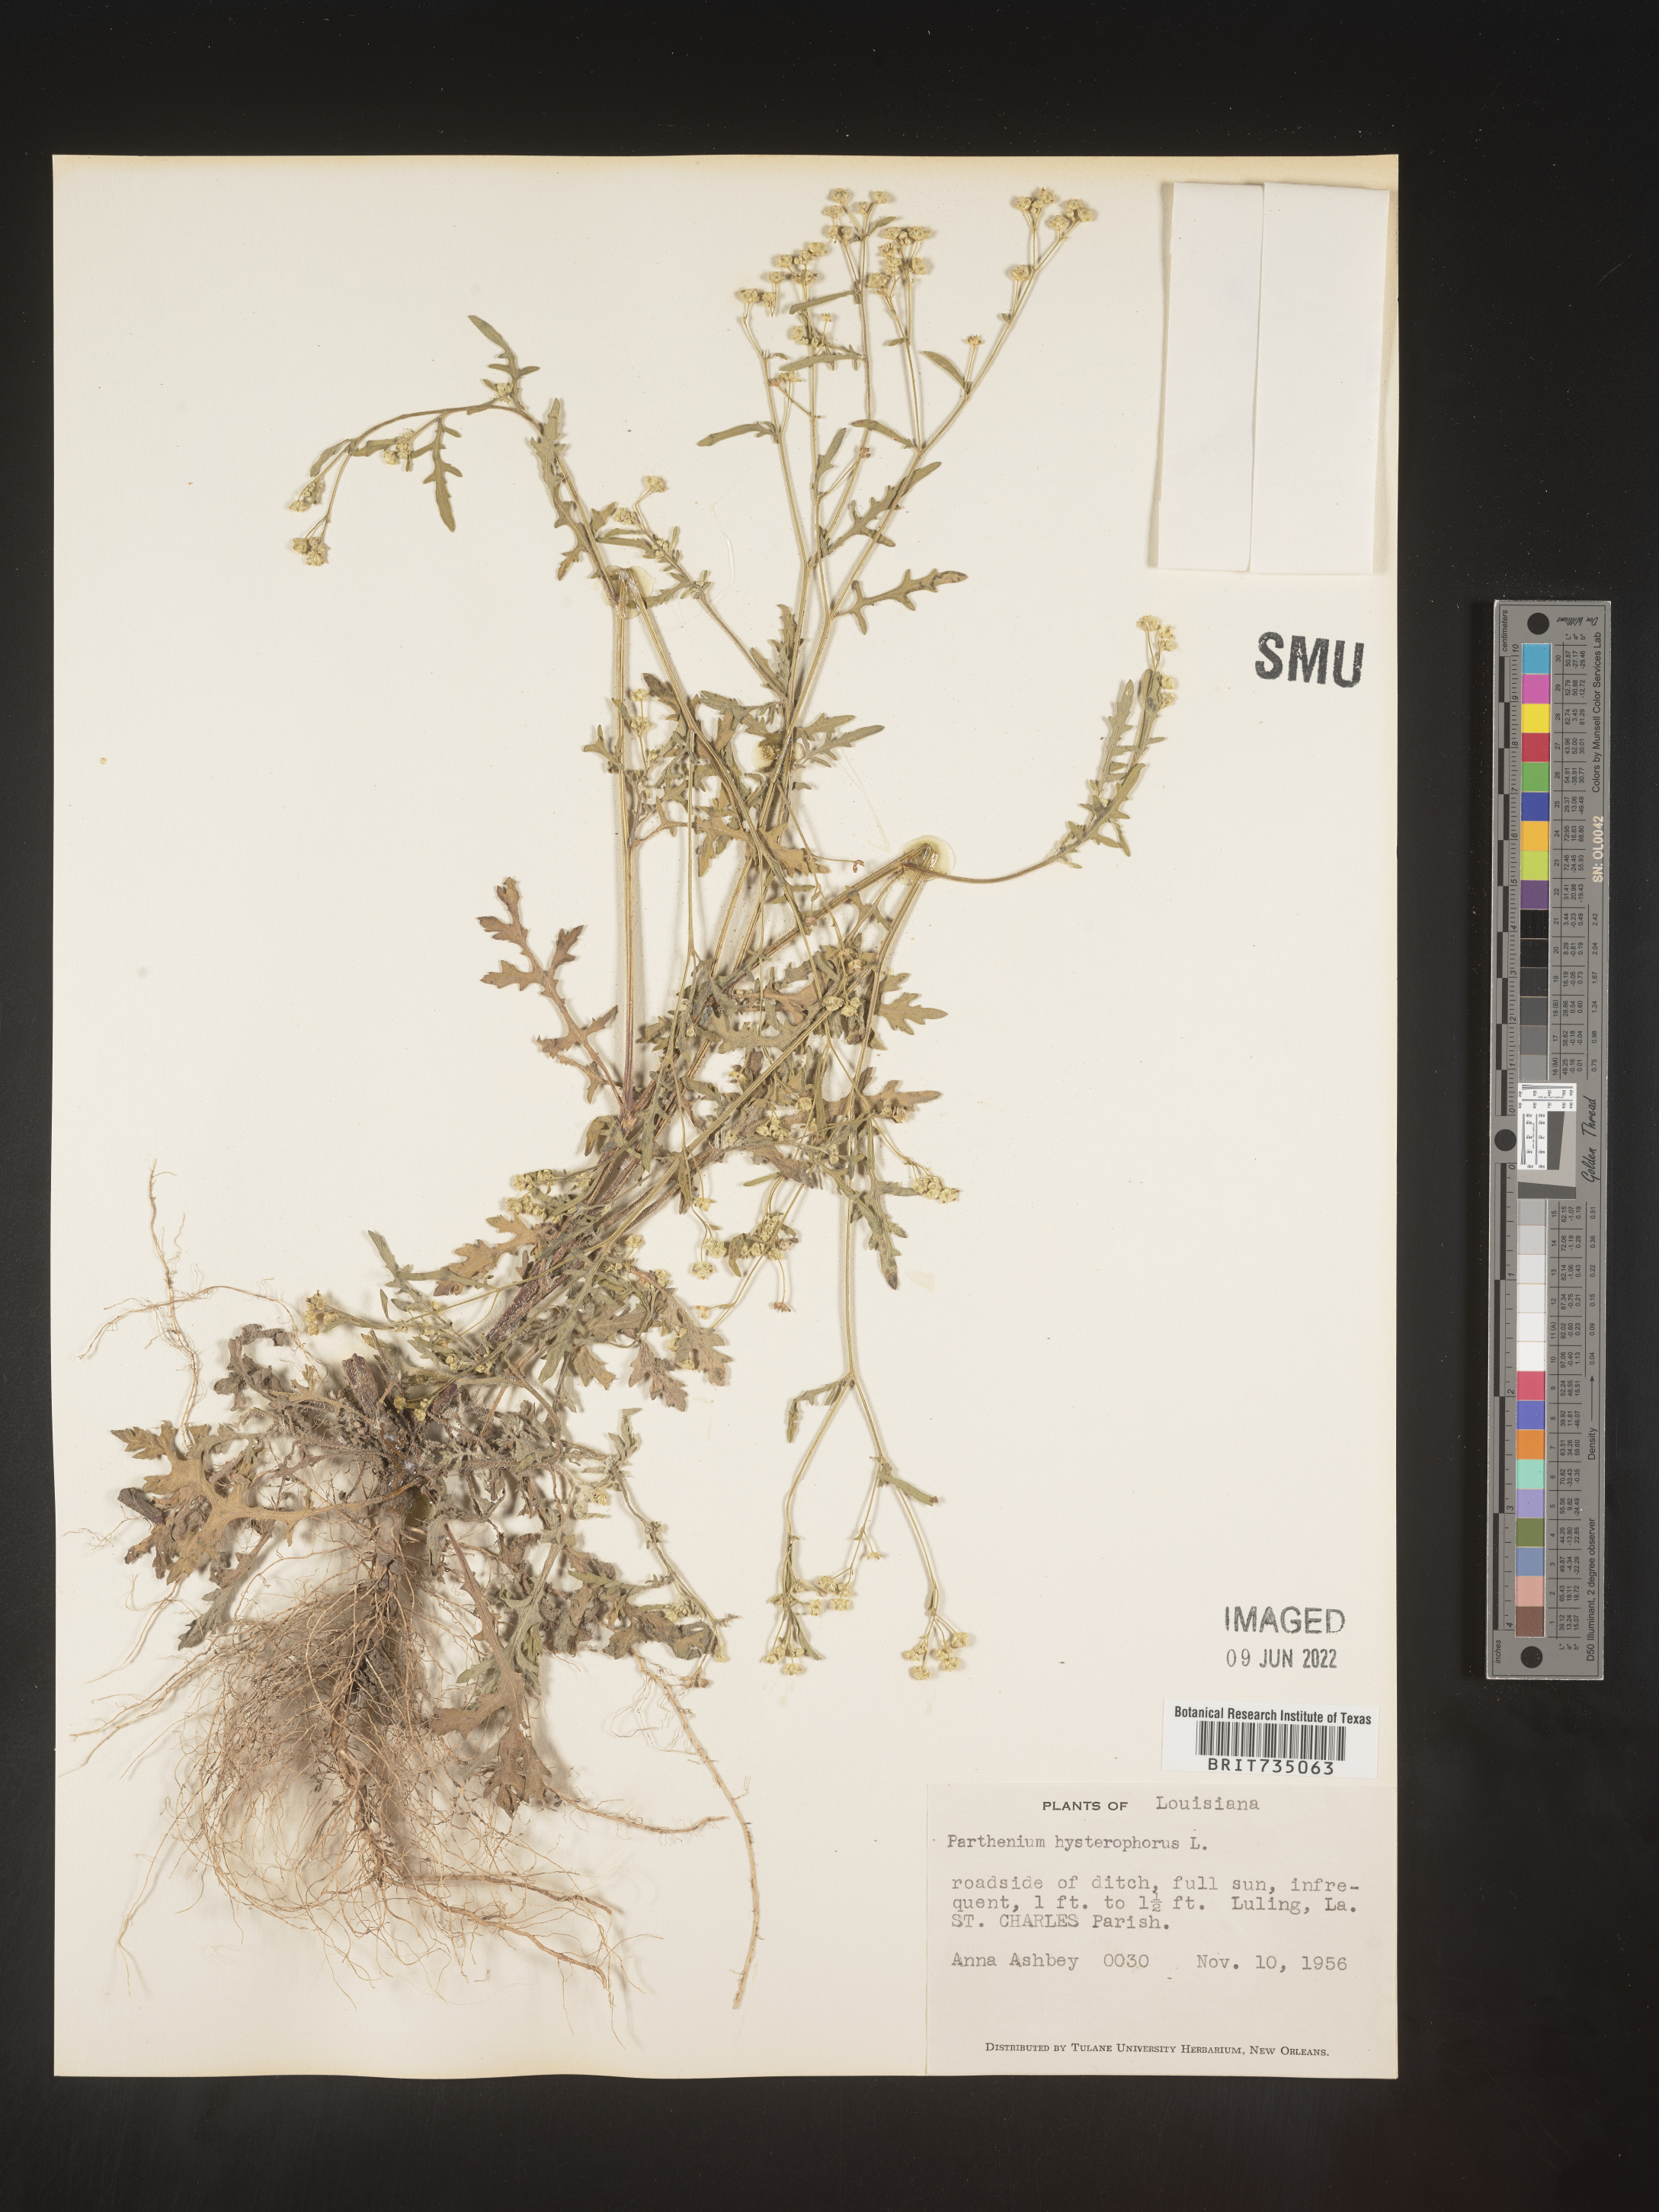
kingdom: Plantae
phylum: Tracheophyta
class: Magnoliopsida
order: Asterales
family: Asteraceae
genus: Parthenium
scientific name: Parthenium hysterophorus
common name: Santa maria feverfew
